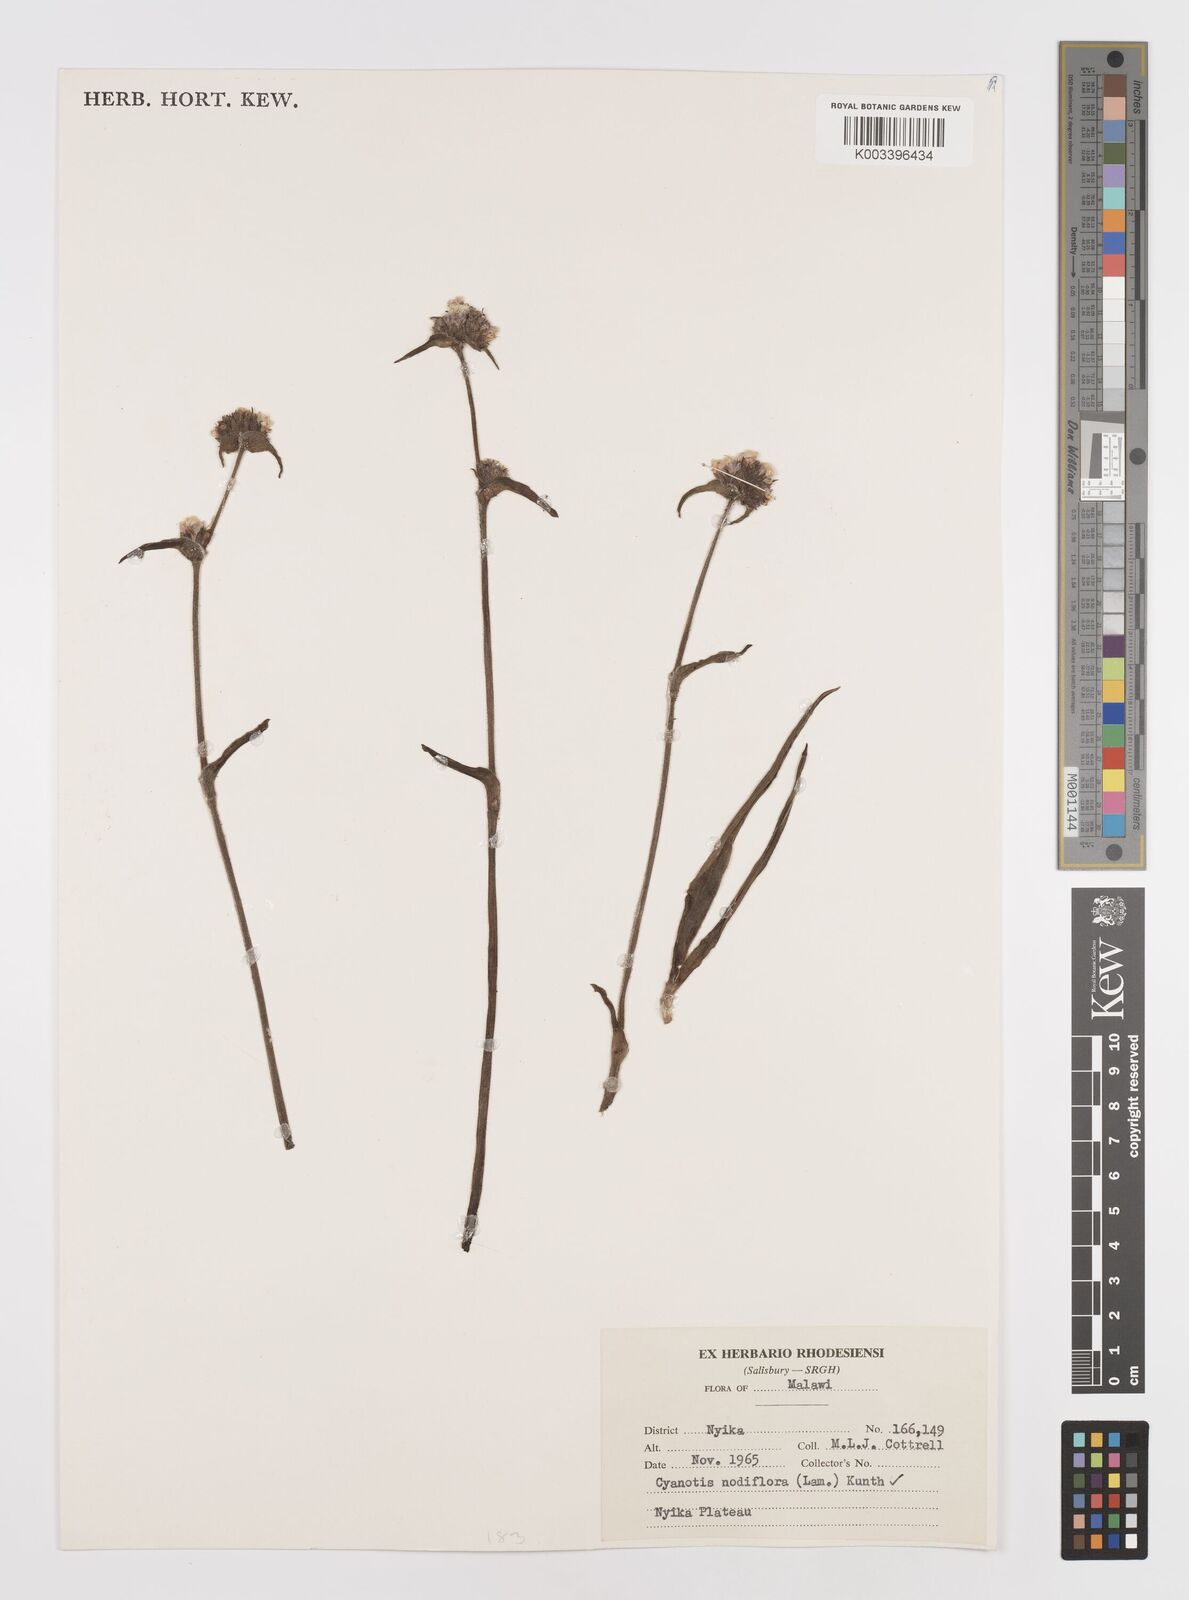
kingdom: Plantae
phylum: Tracheophyta
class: Liliopsida
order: Commelinales
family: Commelinaceae
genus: Cyanotis
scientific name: Cyanotis speciosa
